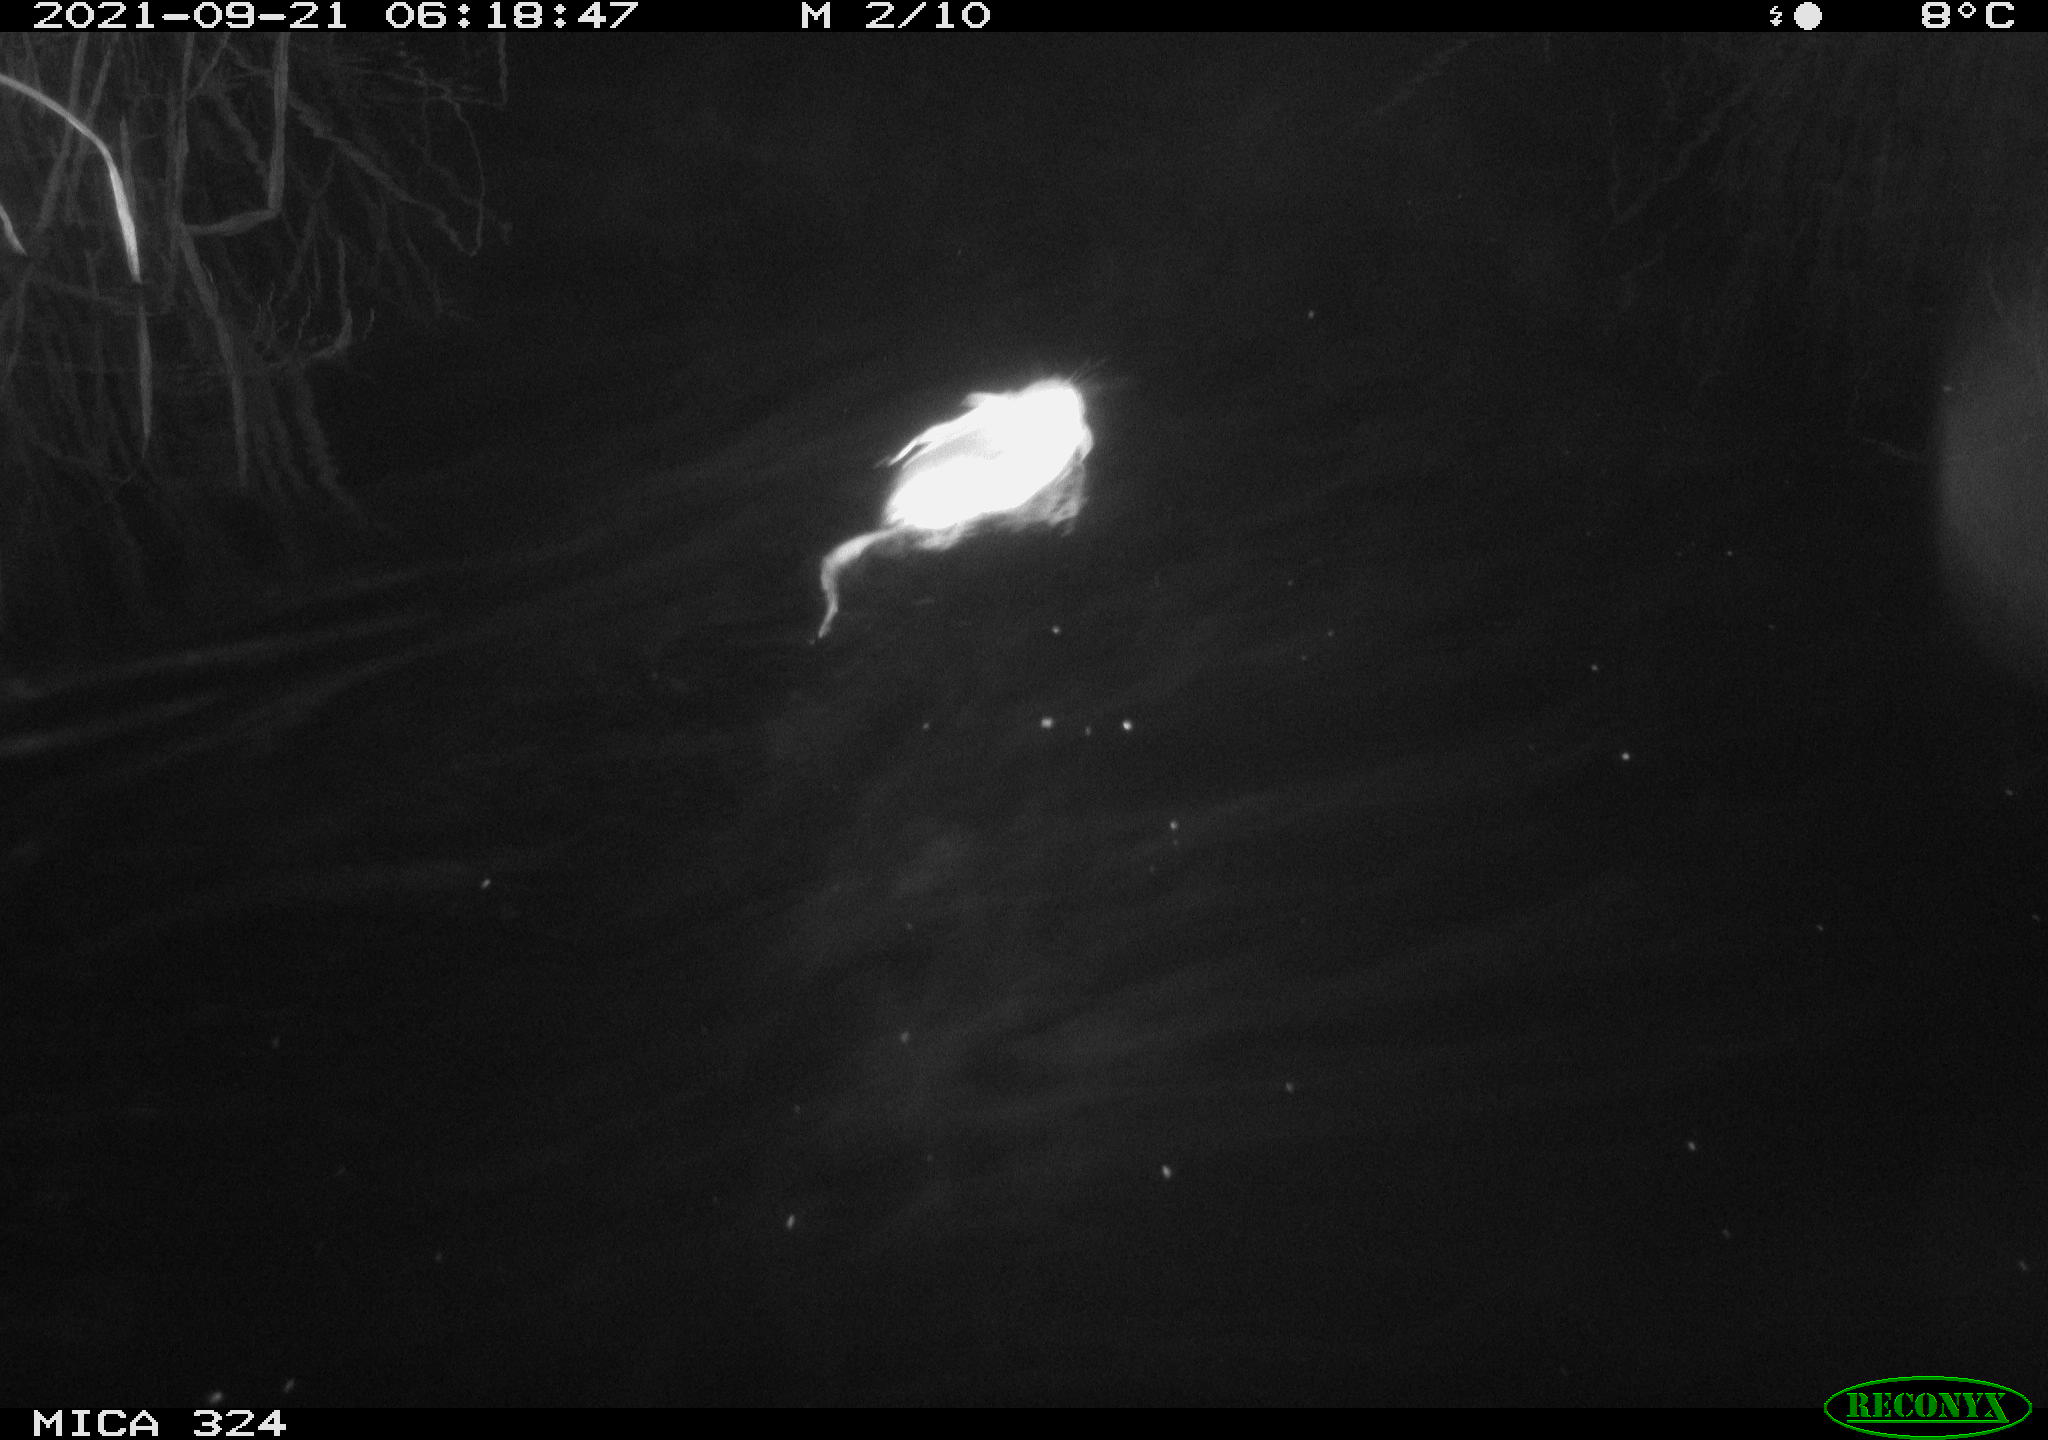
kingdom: Animalia
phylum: Chordata
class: Mammalia
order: Rodentia
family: Cricetidae
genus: Ondatra
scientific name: Ondatra zibethicus
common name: Muskrat
